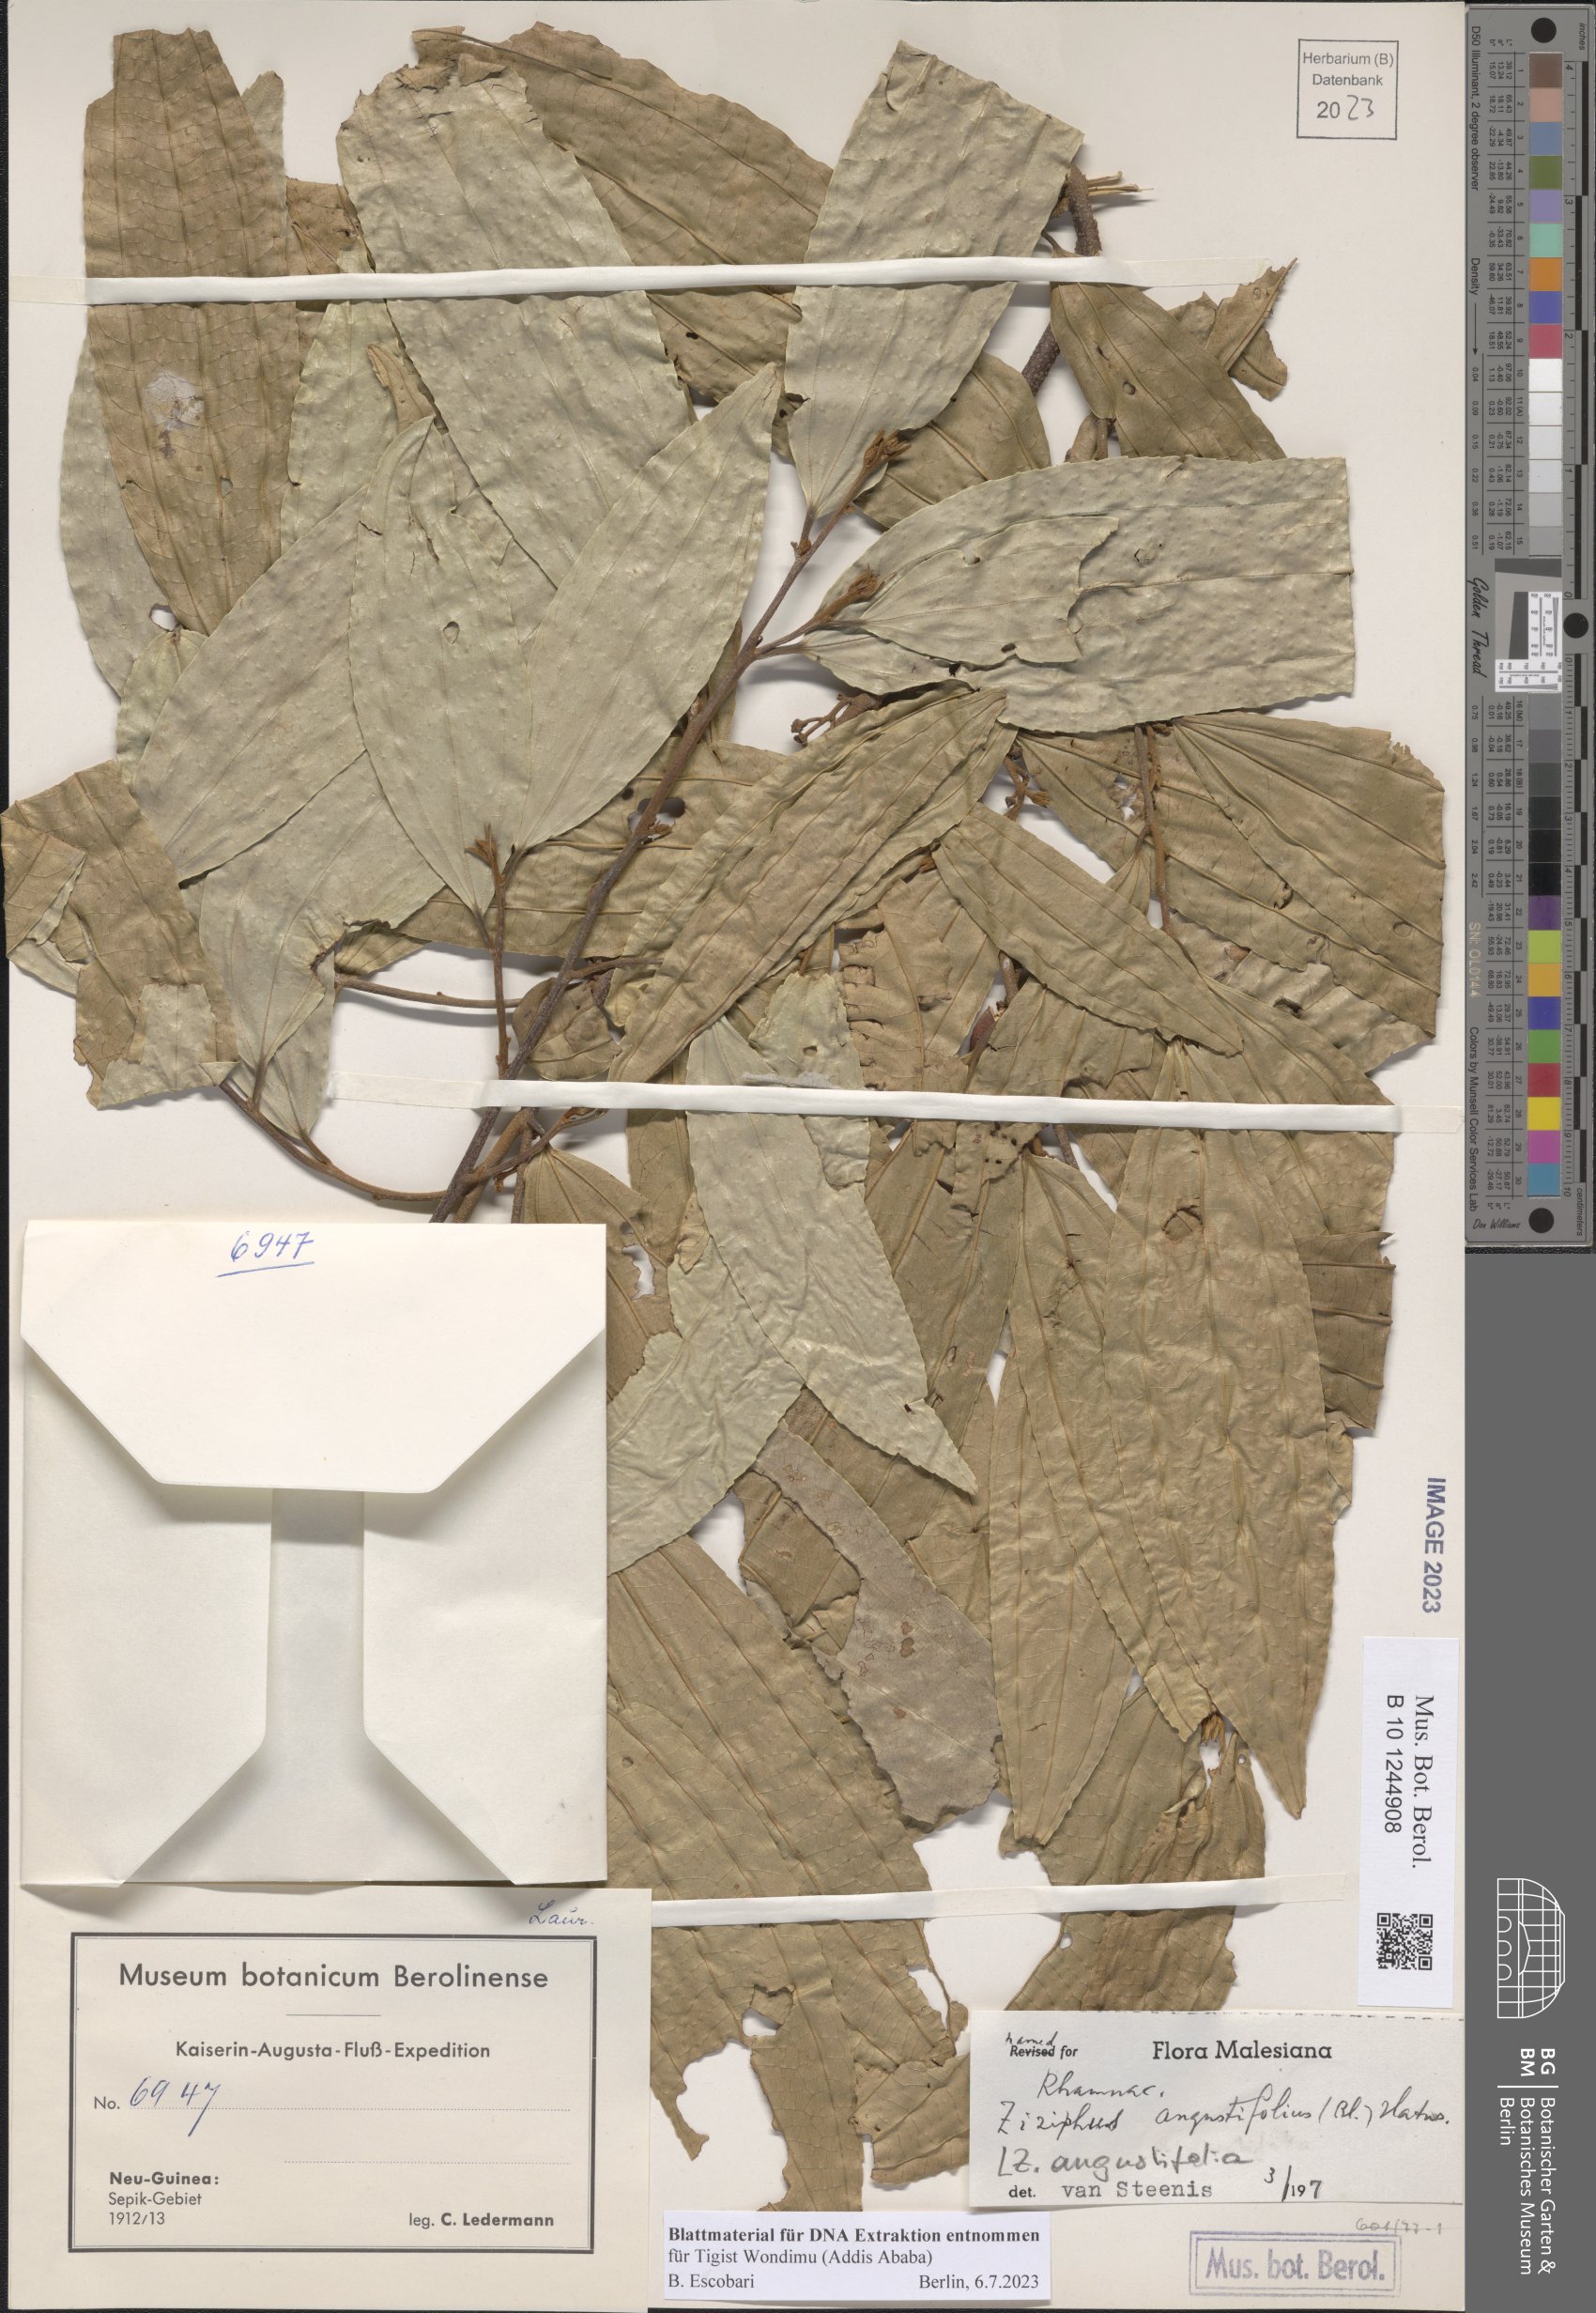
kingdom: Plantae
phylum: Tracheophyta
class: Magnoliopsida
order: Rosales
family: Rhamnaceae
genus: Ziziphus
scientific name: Ziziphus angustifolia
